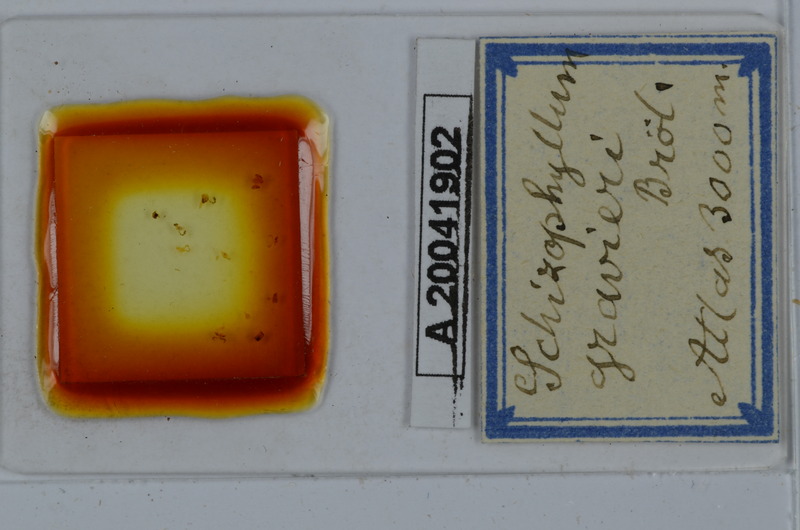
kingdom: Animalia
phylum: Arthropoda
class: Diplopoda
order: Julida
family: Julidae
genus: Schizophyllum
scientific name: Schizophyllum gravieri
